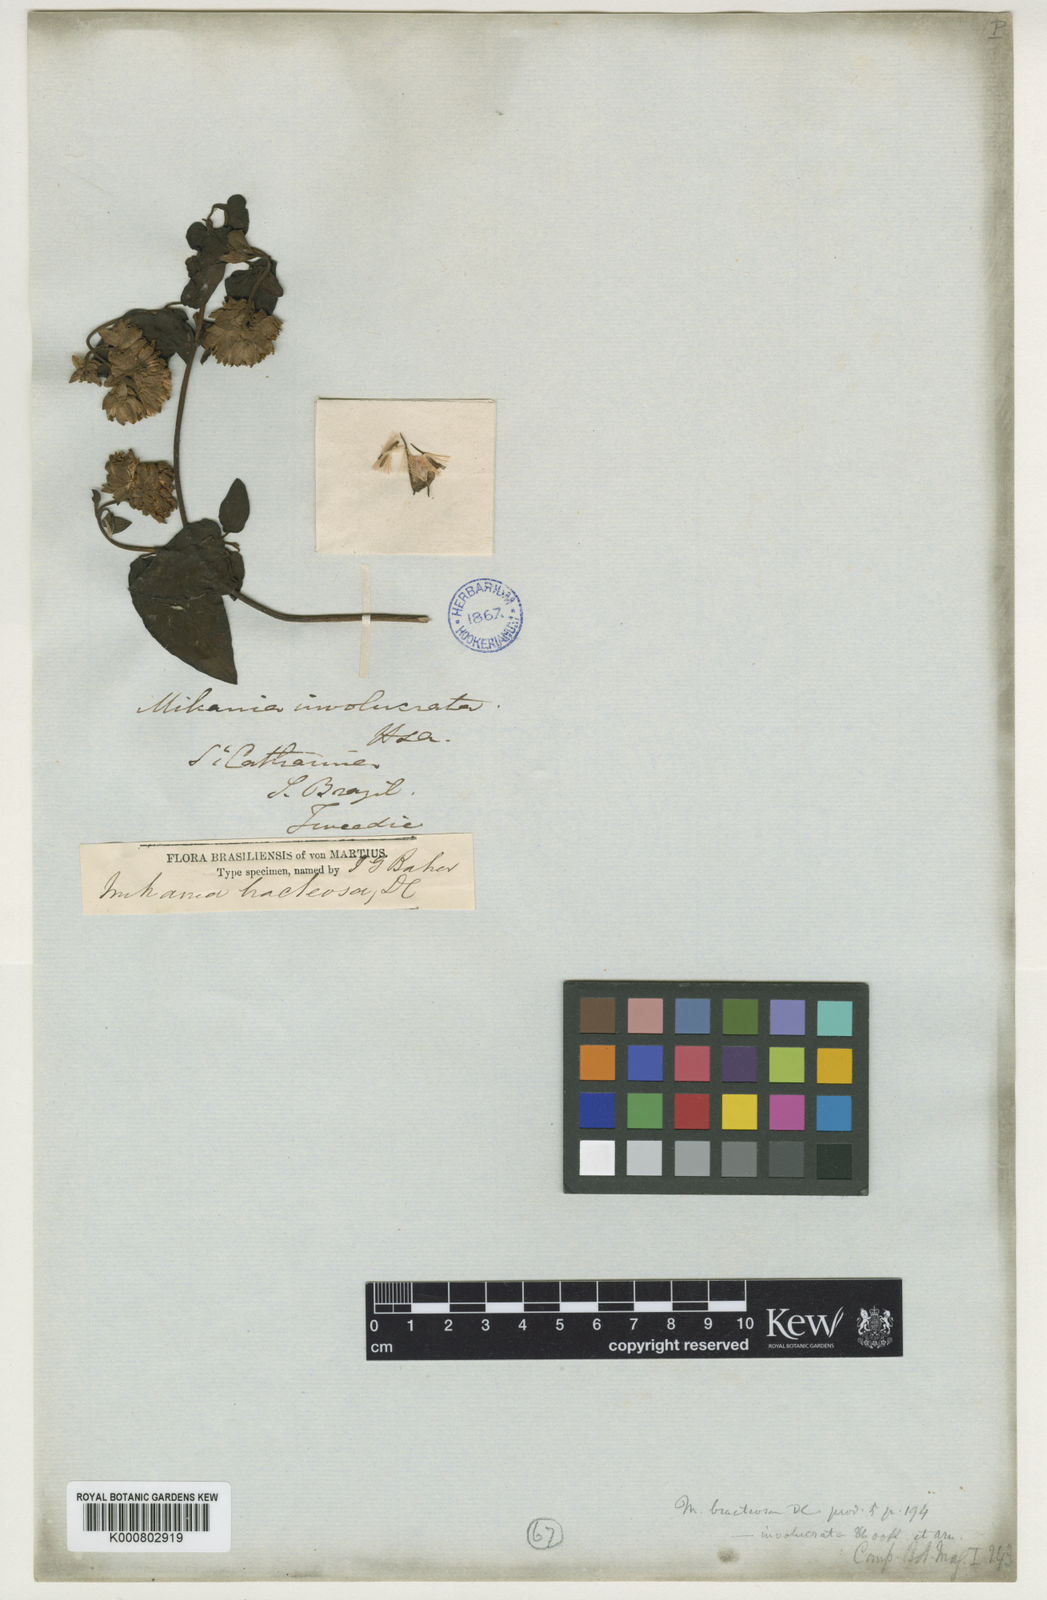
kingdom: Plantae
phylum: Tracheophyta
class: Magnoliopsida
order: Asterales
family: Asteraceae
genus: Mikania
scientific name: Mikania involucrata
